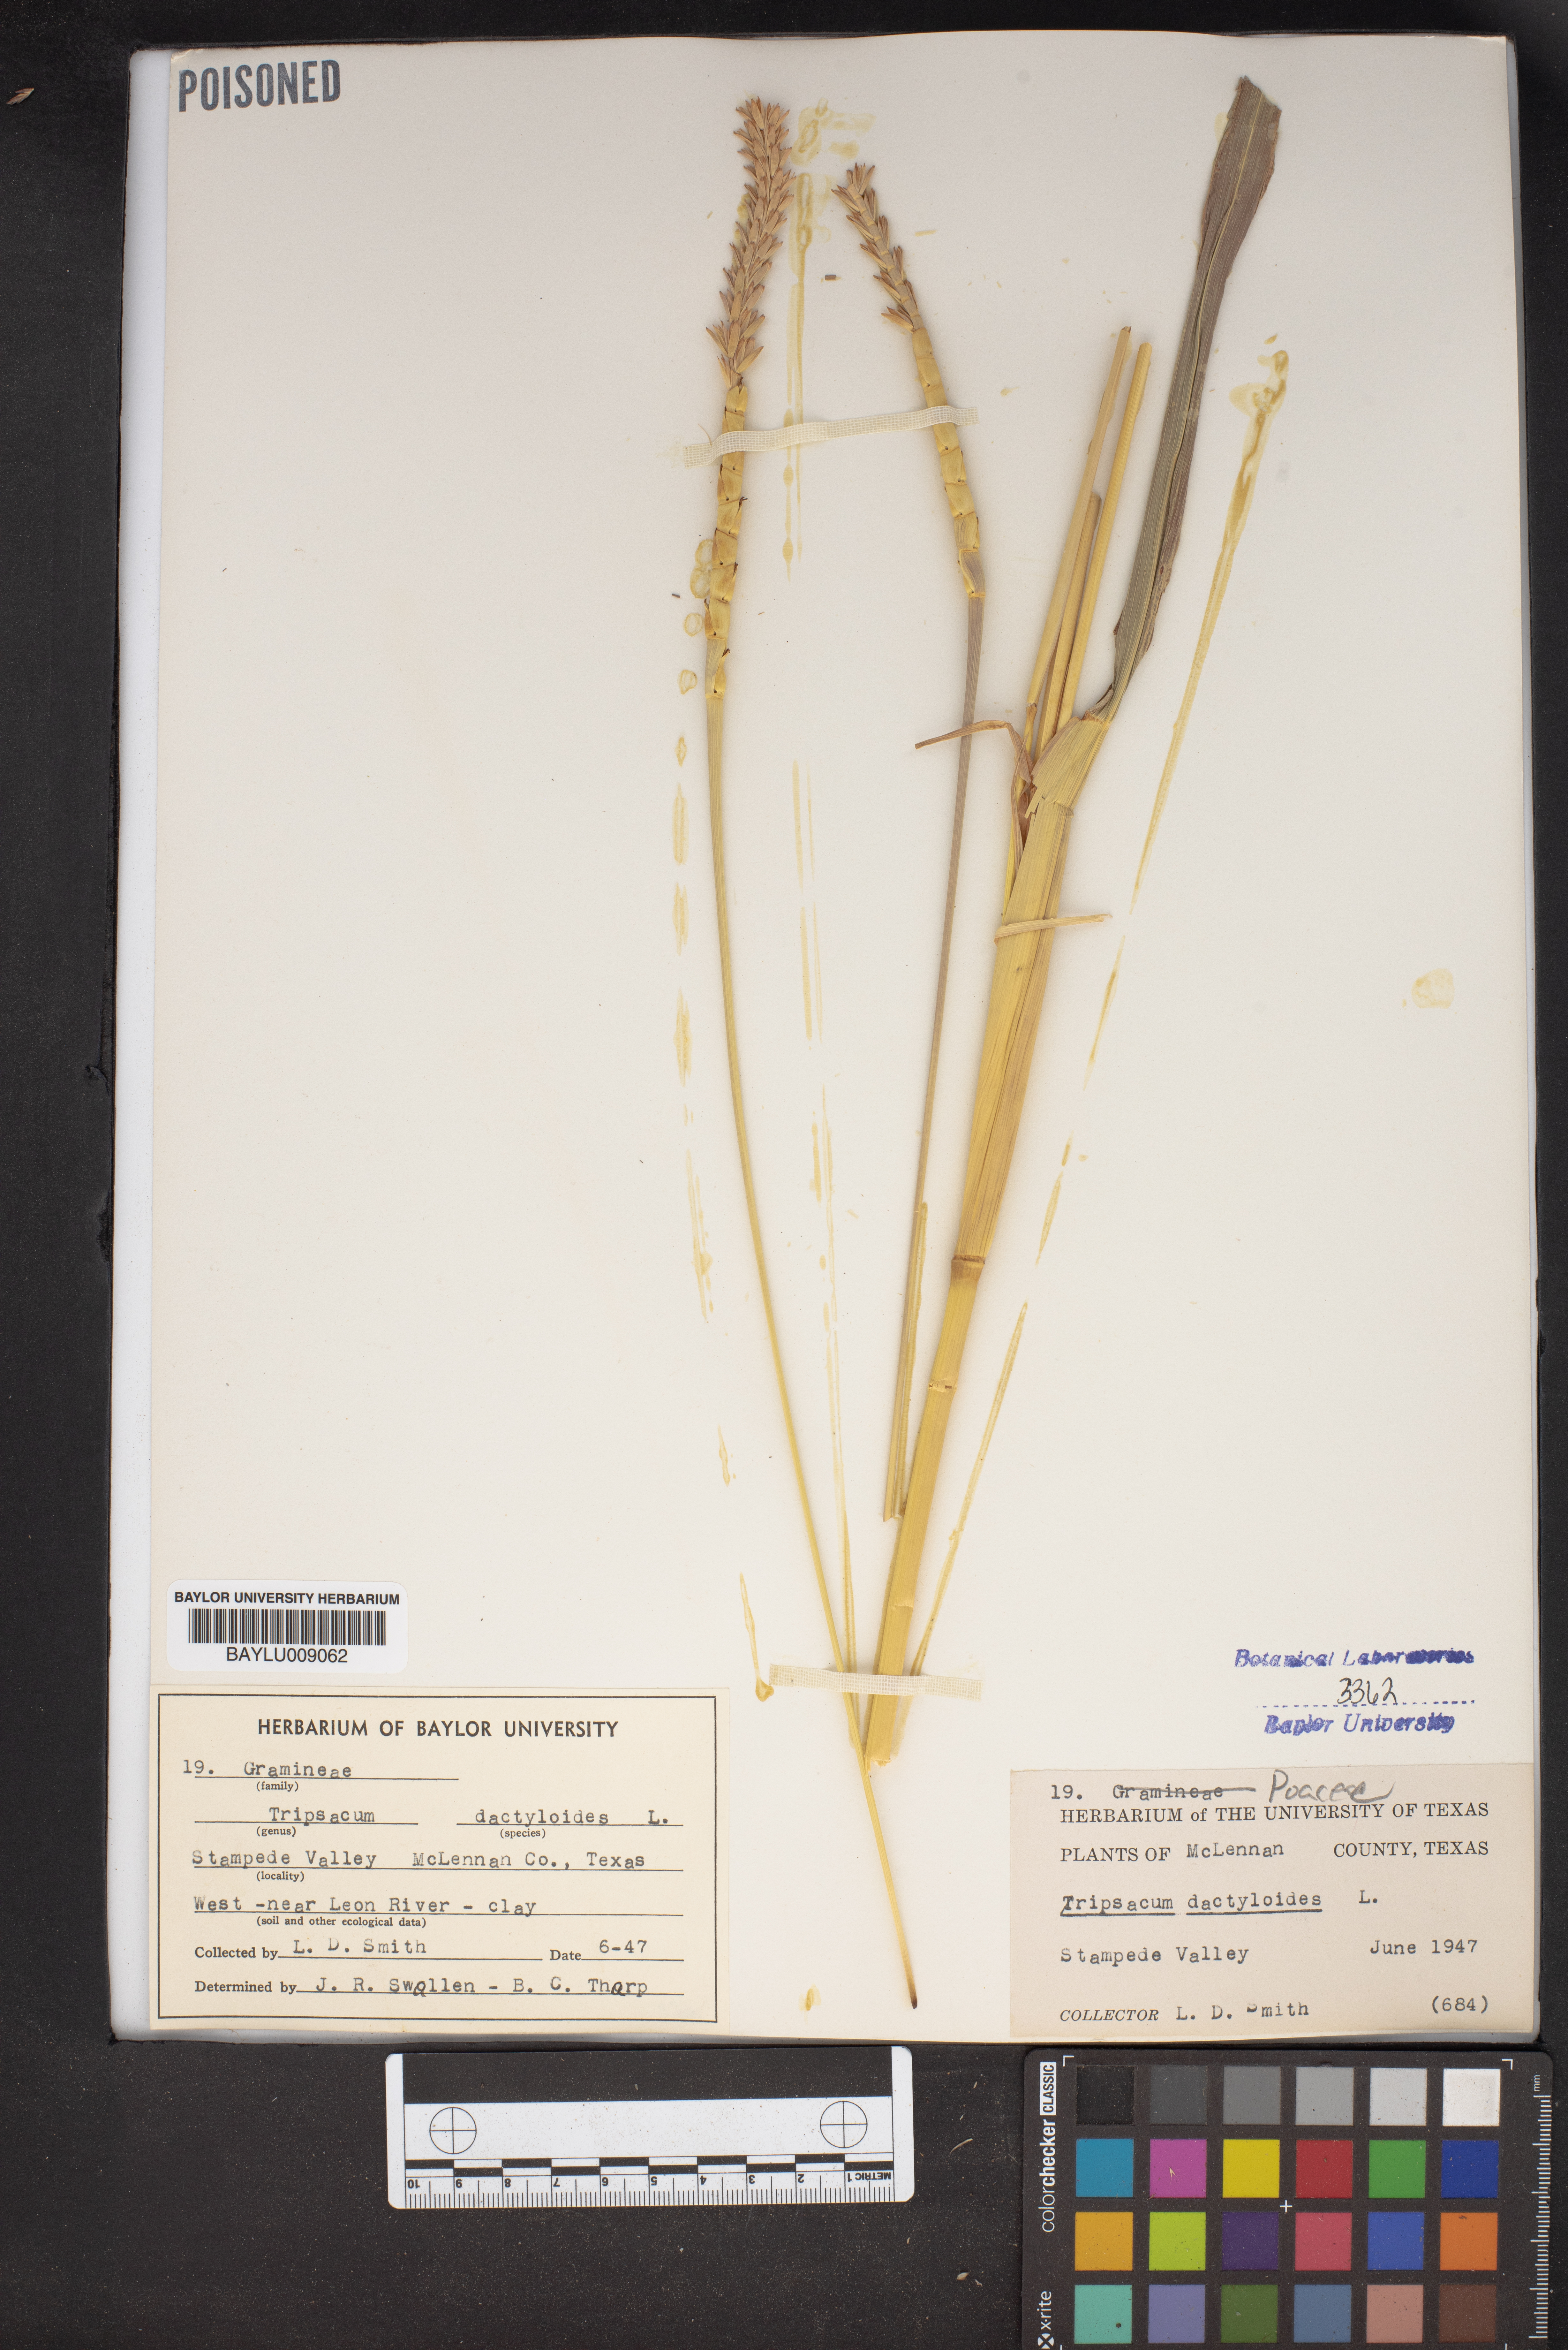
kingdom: Plantae
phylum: Tracheophyta
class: Liliopsida
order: Poales
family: Poaceae
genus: Tripsacum
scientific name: Tripsacum dactyloides
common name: Buffalo-grass
